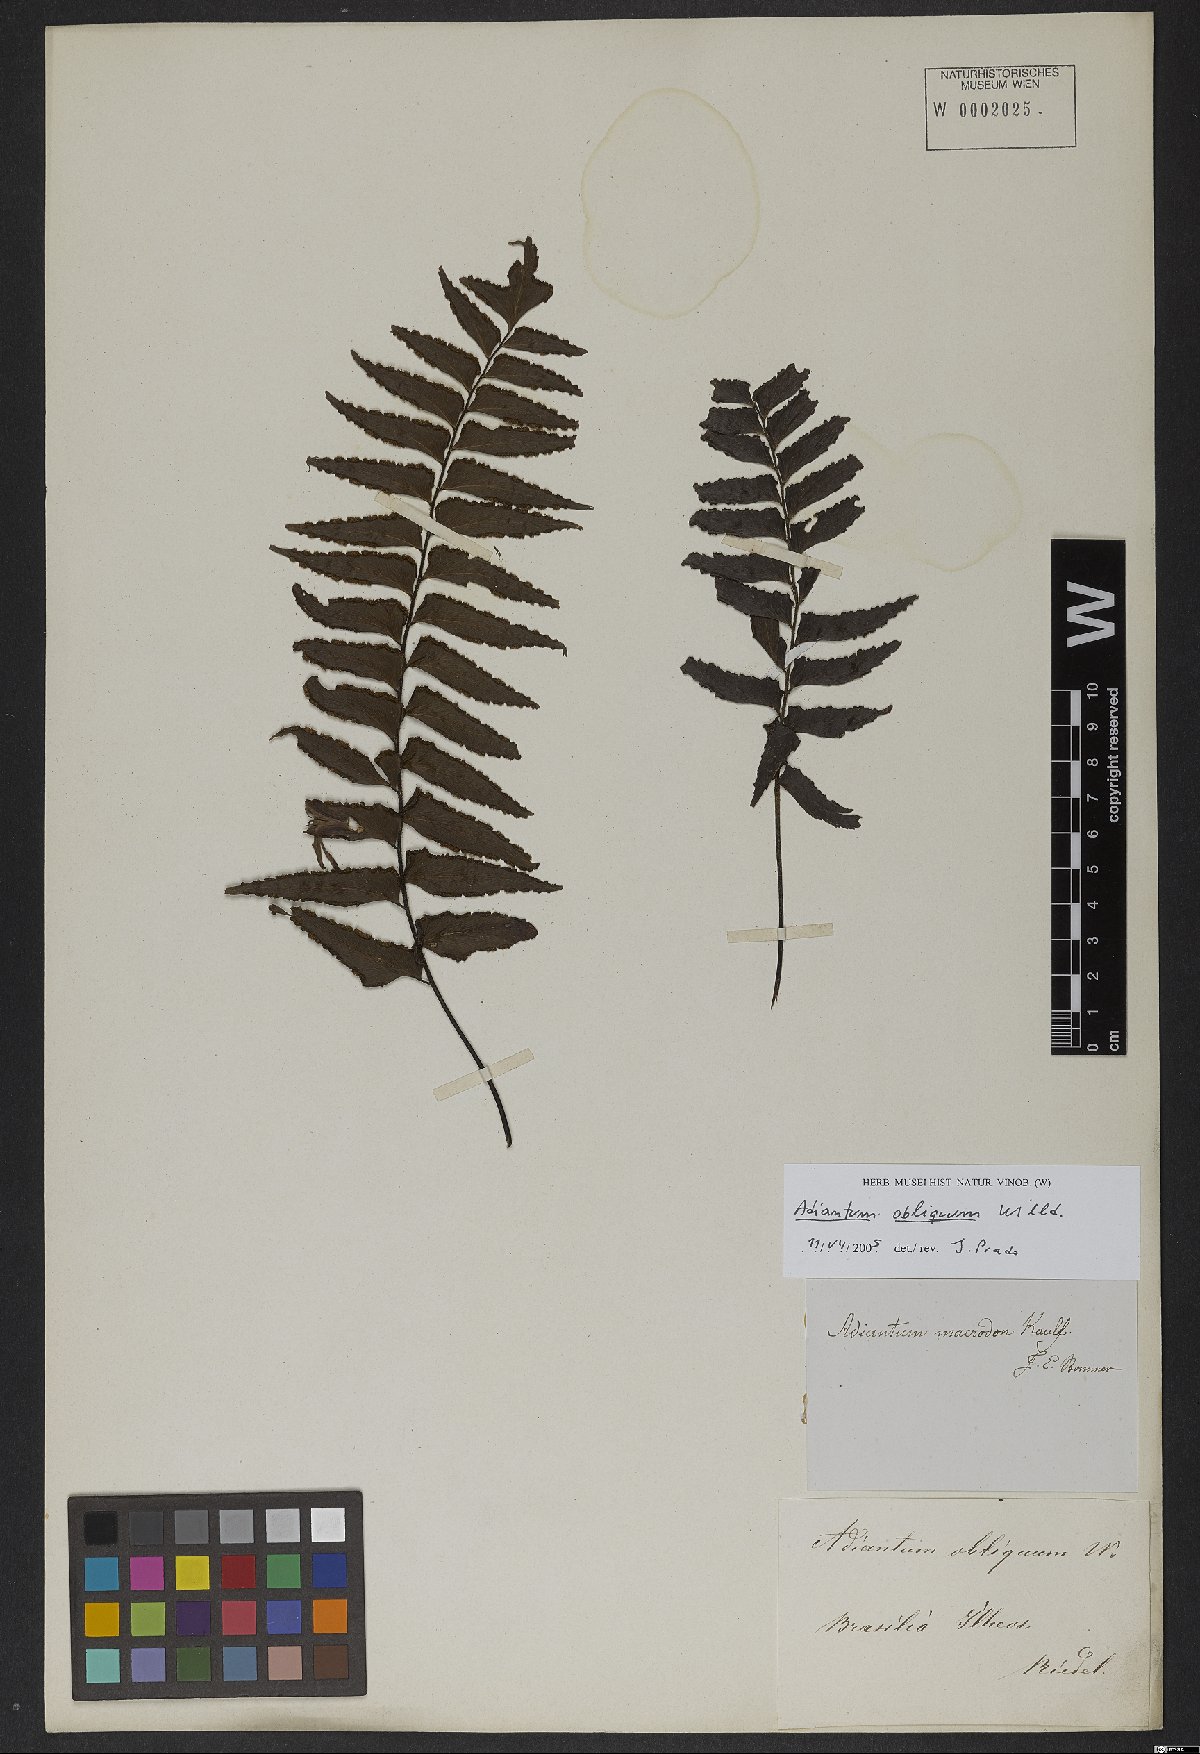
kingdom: Plantae
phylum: Tracheophyta
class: Polypodiopsida
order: Polypodiales
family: Pteridaceae
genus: Adiantum
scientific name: Adiantum obliquum
